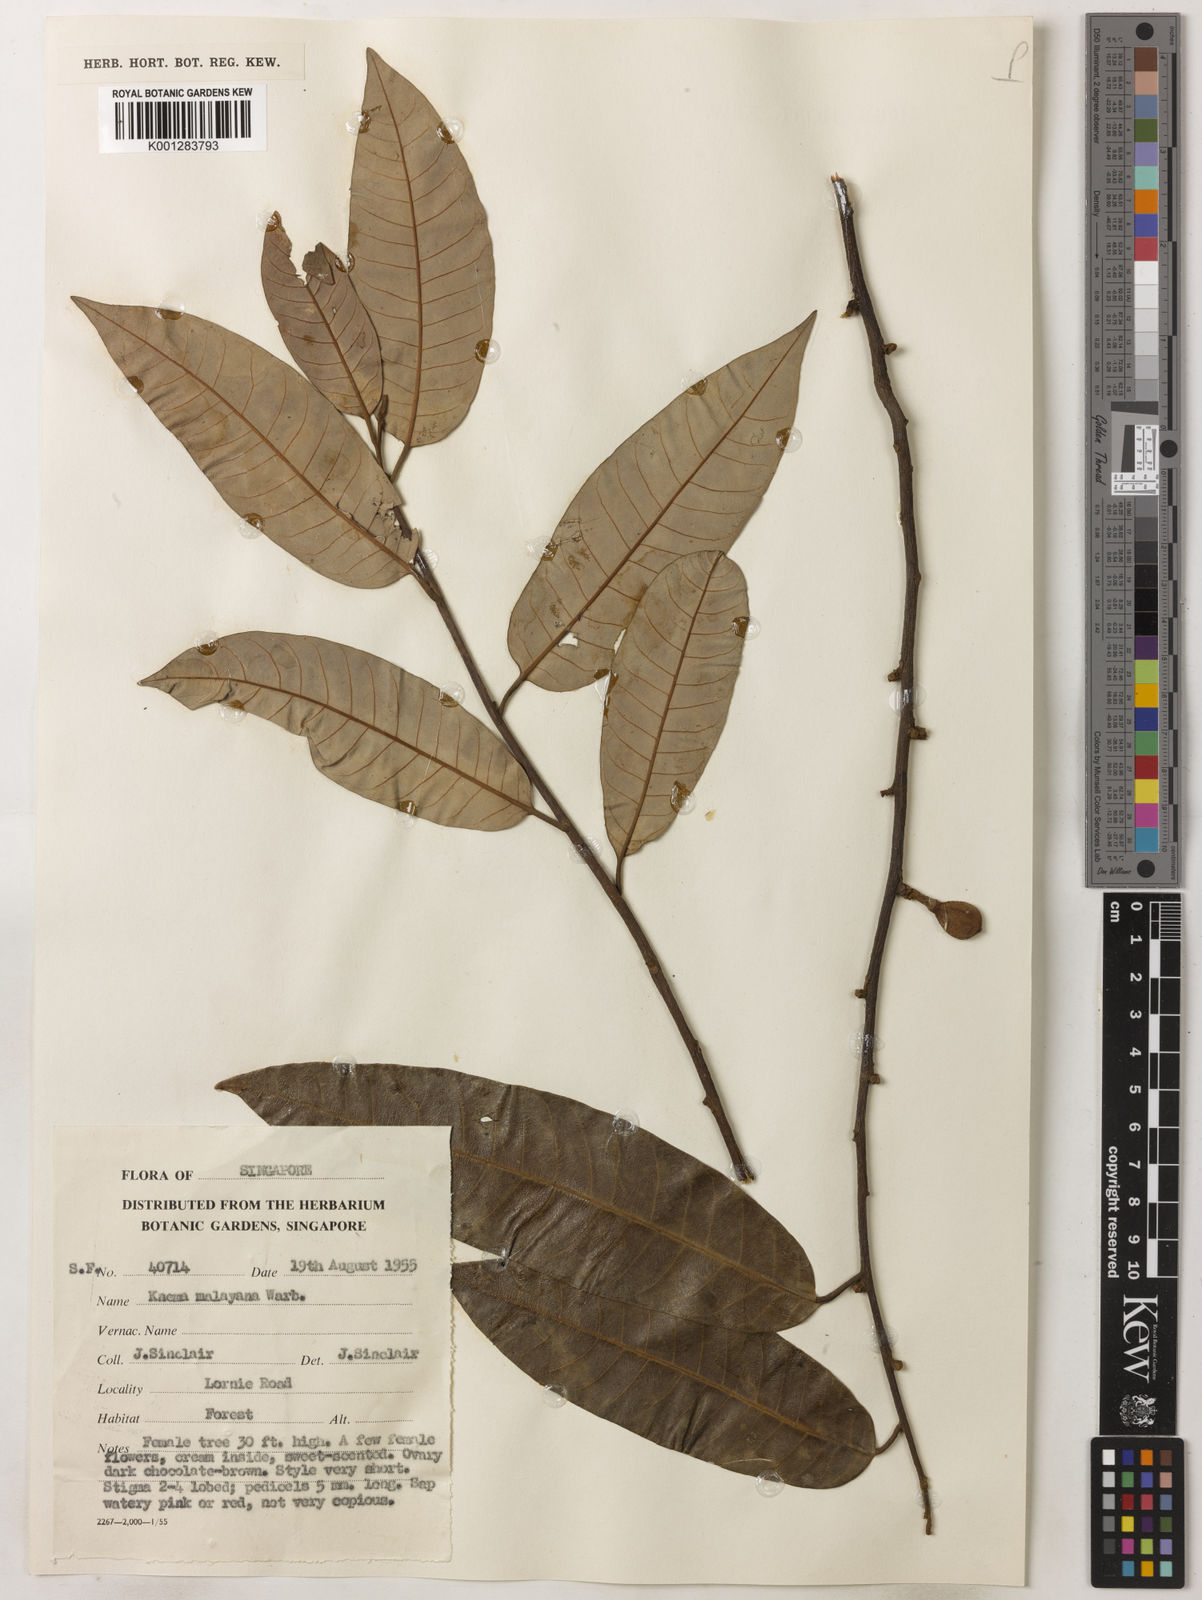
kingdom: Plantae
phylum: Tracheophyta
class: Magnoliopsida
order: Magnoliales
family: Myristicaceae
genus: Knema
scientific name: Knema malayana
